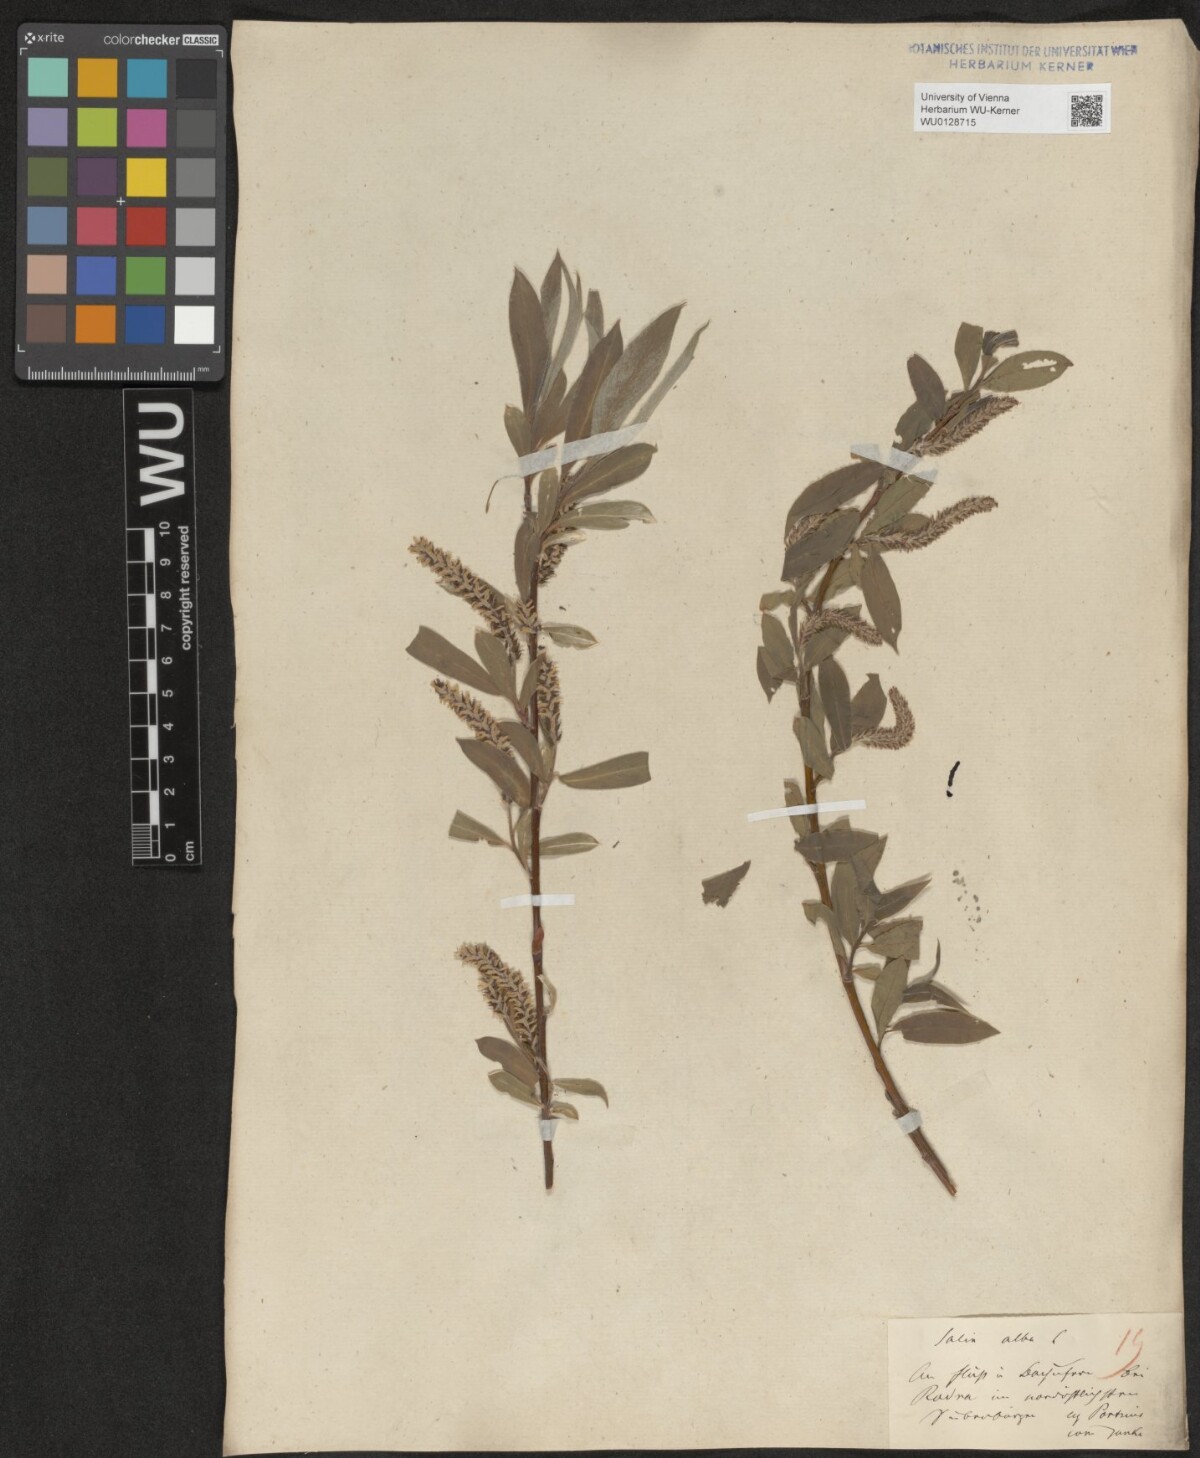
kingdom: Plantae
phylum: Tracheophyta
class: Magnoliopsida
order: Malpighiales
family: Salicaceae
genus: Salix
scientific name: Salix alba
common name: White willow
